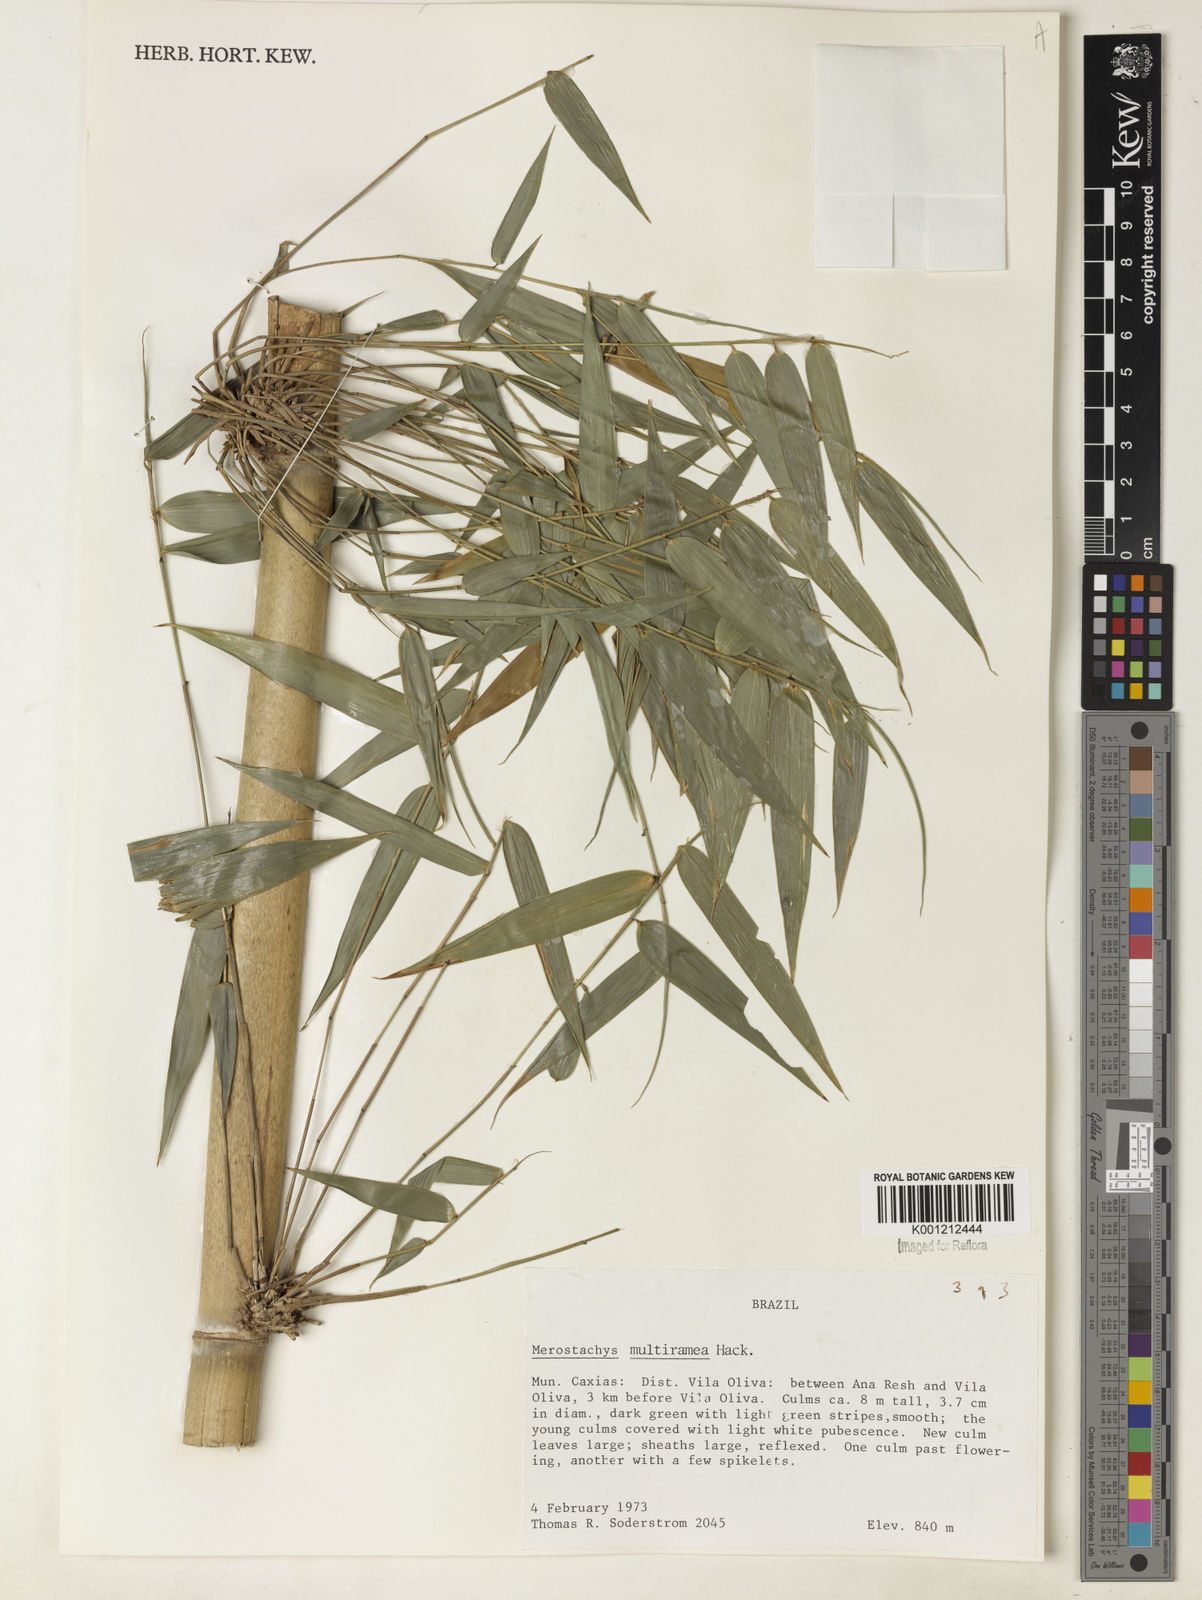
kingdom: Plantae
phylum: Tracheophyta
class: Liliopsida
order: Poales
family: Poaceae
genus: Merostachys
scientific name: Merostachys multiramea
